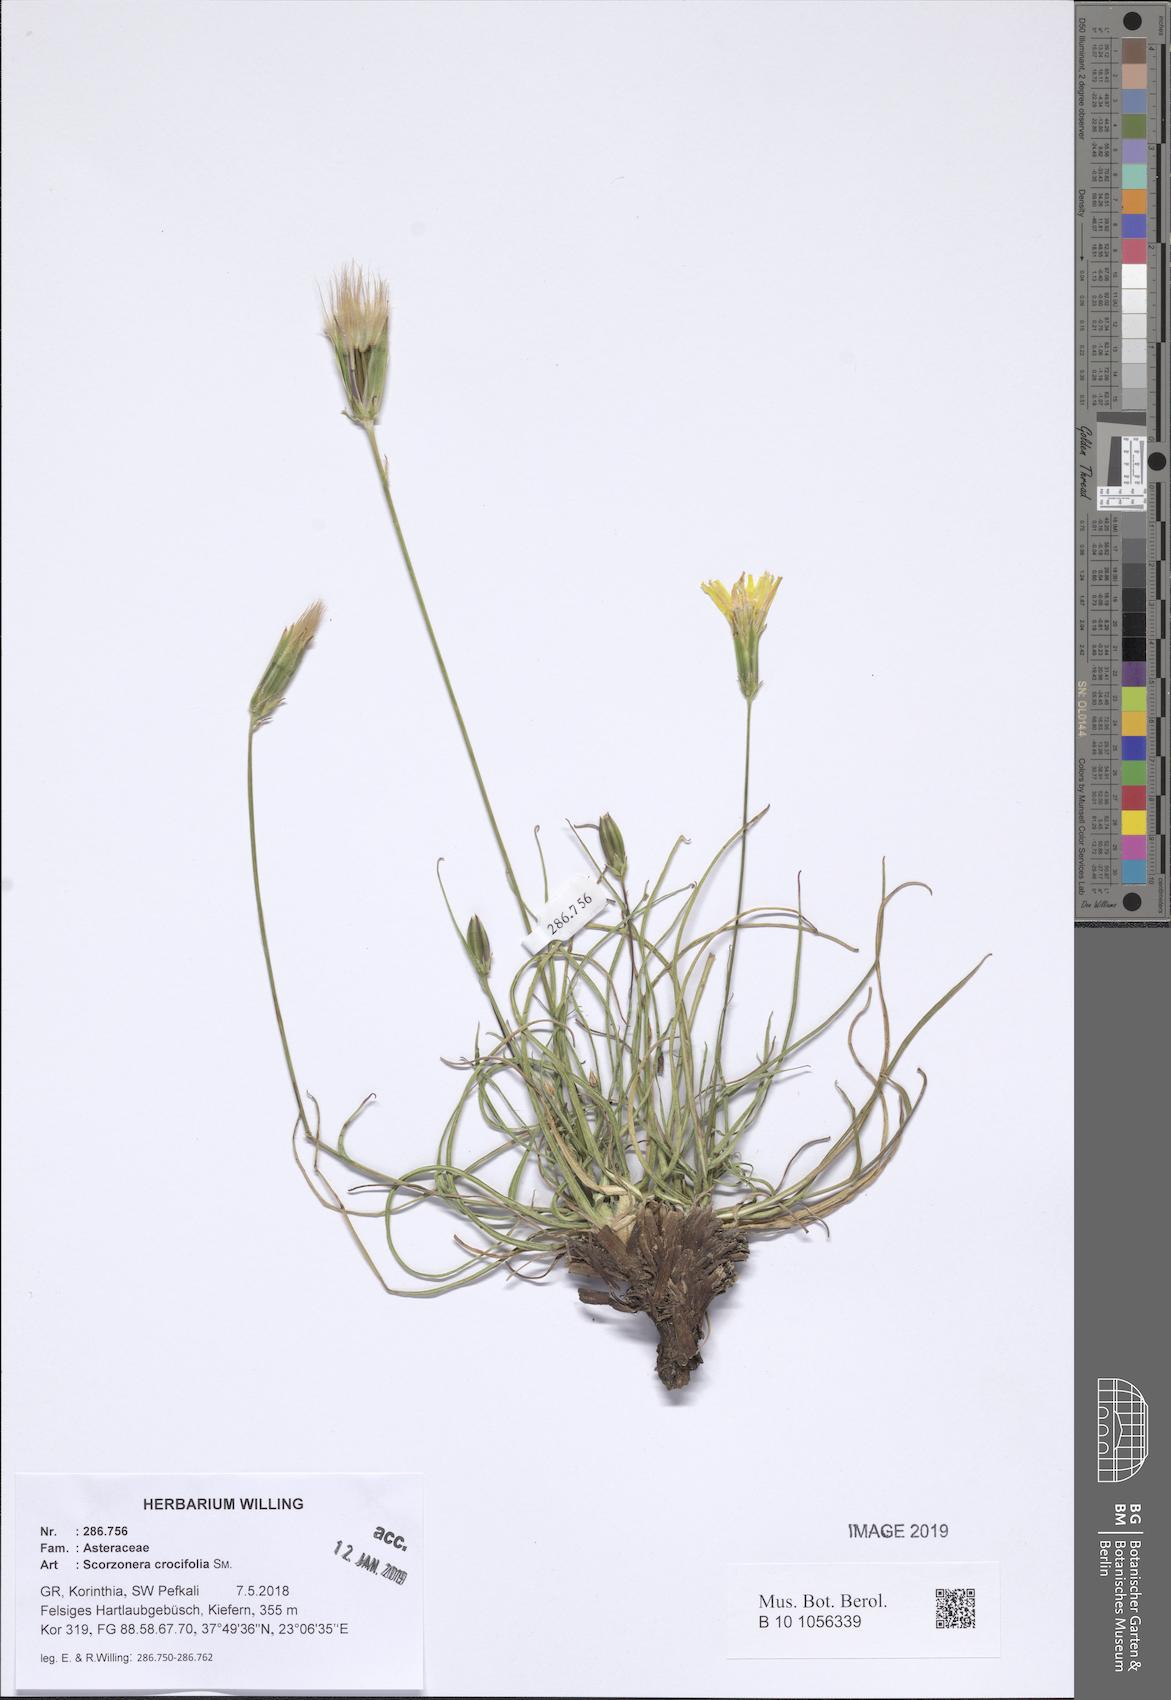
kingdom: Plantae
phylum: Tracheophyta
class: Magnoliopsida
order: Asterales
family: Asteraceae
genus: Pseudopodospermum
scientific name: Pseudopodospermum crocifolium
